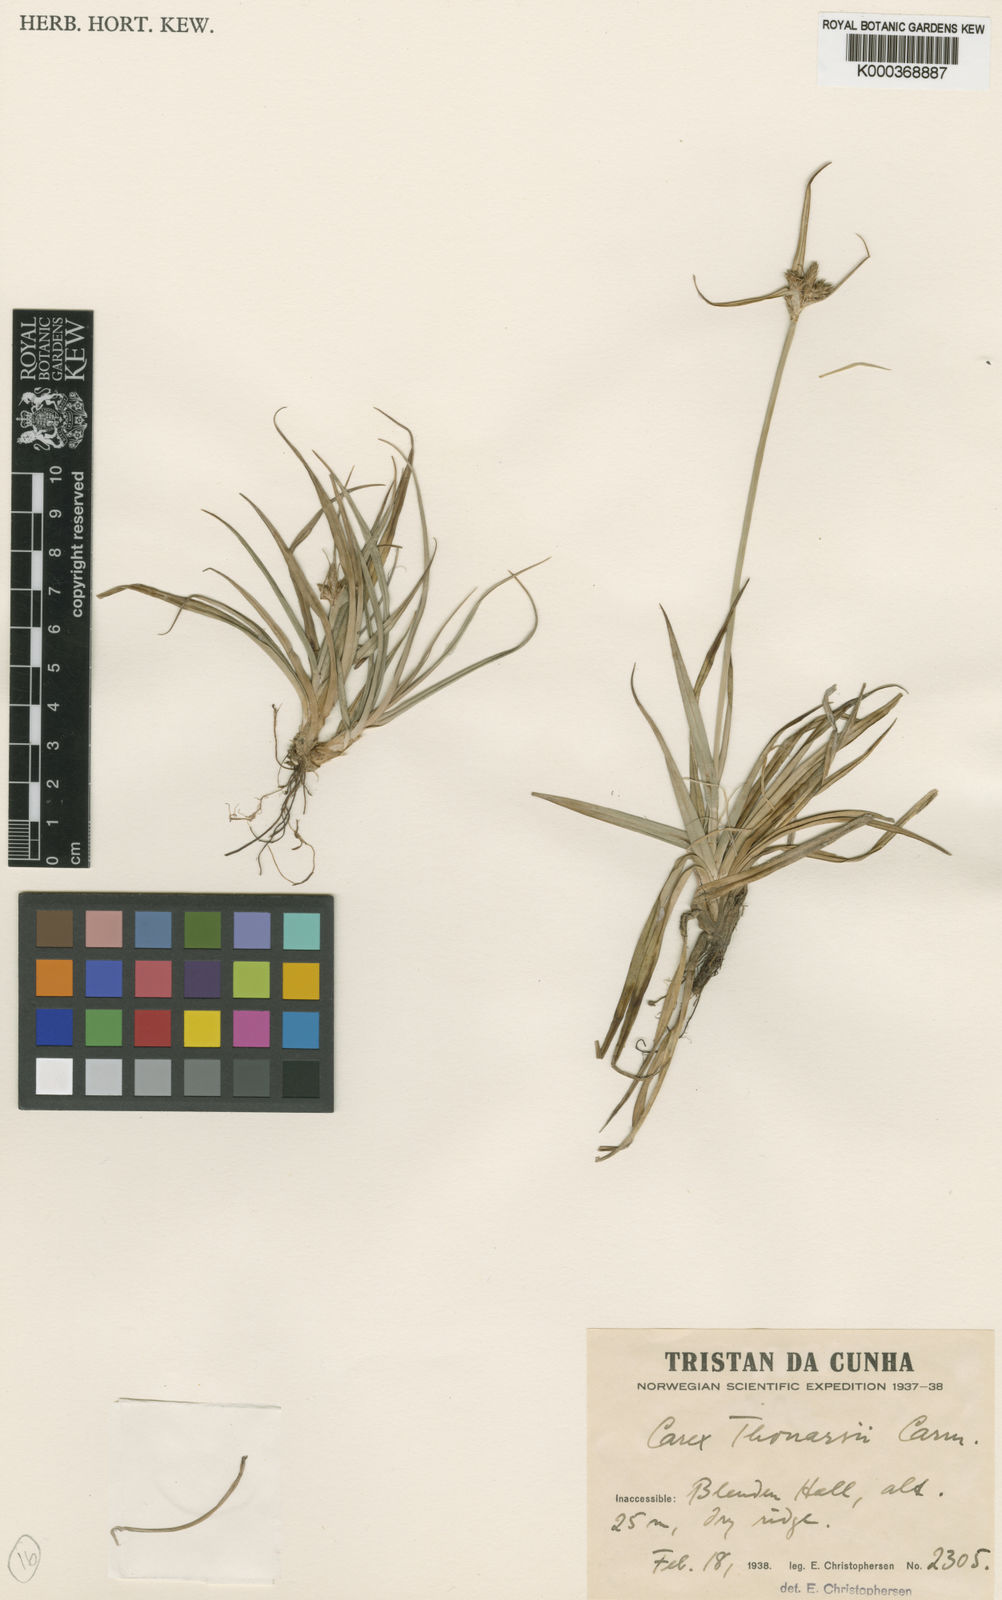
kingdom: Plantae
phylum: Tracheophyta
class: Liliopsida
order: Poales
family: Cyperaceae
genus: Carex
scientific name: Carex thouarsii
